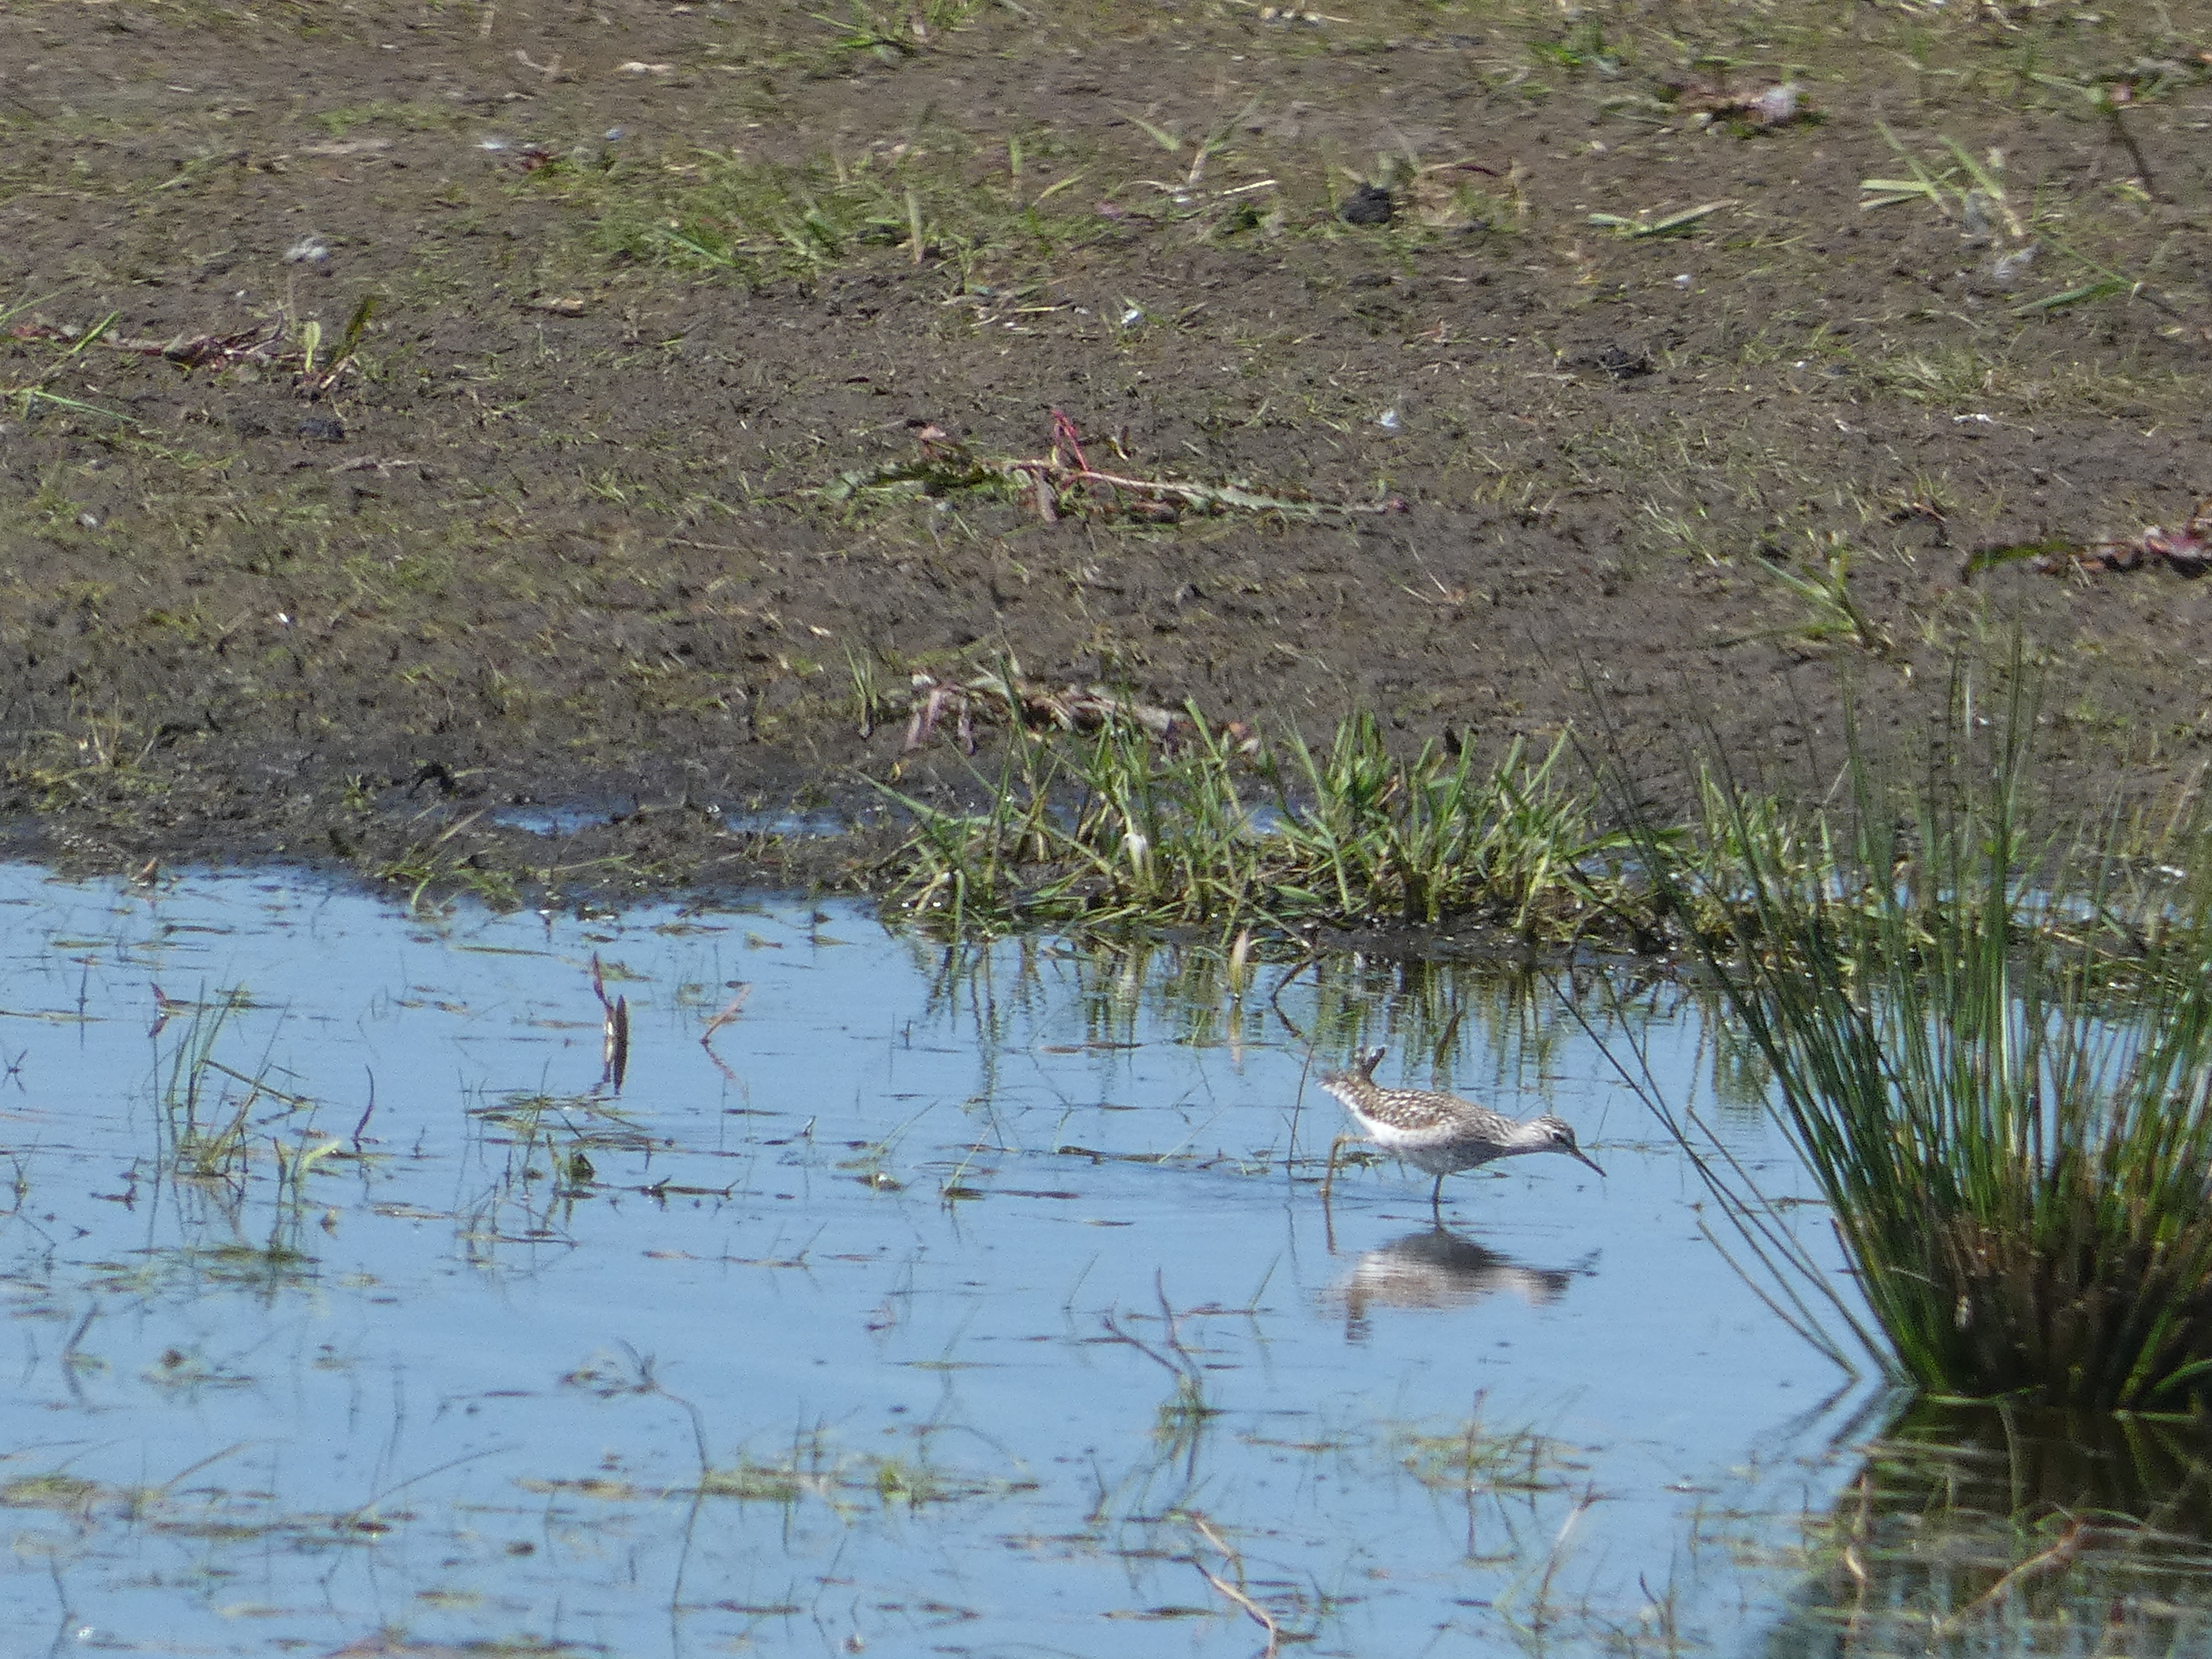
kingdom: Animalia
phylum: Chordata
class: Aves
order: Charadriiformes
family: Scolopacidae
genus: Tringa
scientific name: Tringa glareola
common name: Tinksmed
